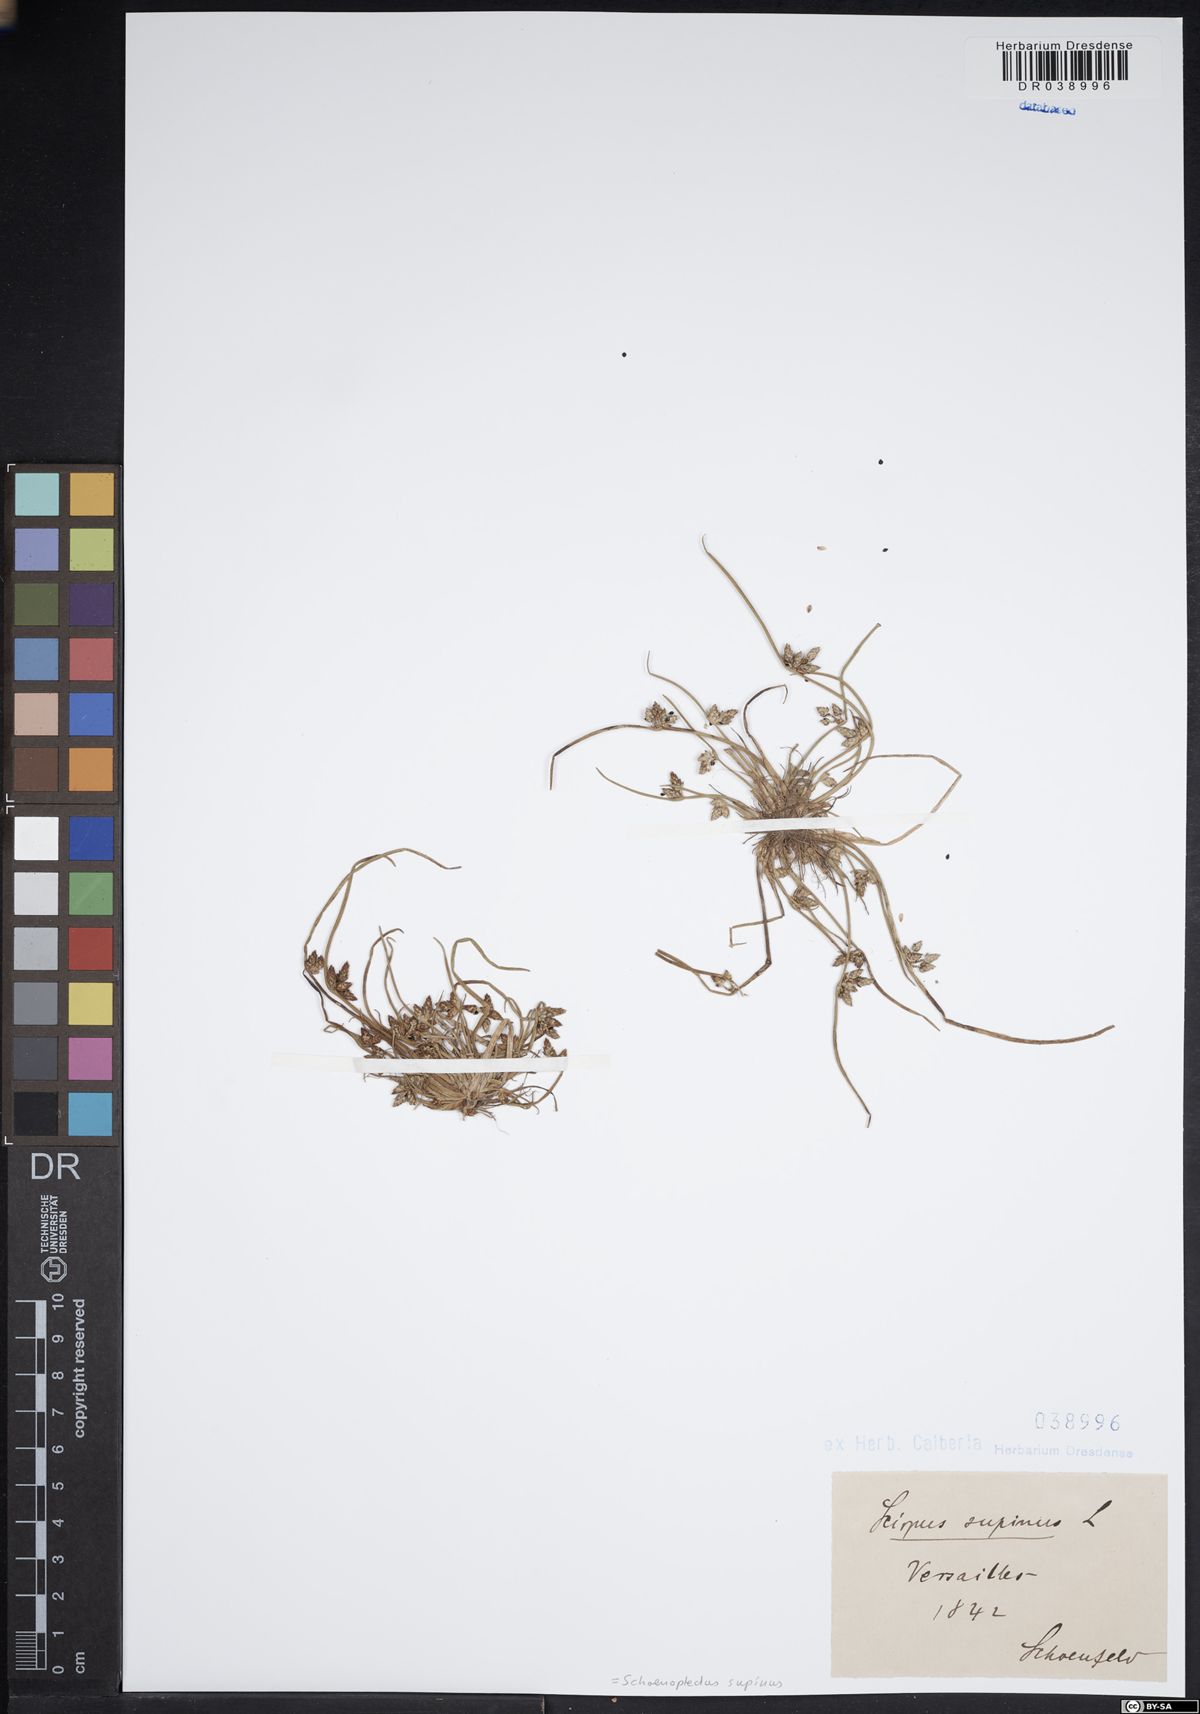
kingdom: Plantae
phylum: Tracheophyta
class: Liliopsida
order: Poales
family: Cyperaceae
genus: Schoenoplectiella
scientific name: Schoenoplectiella supina
